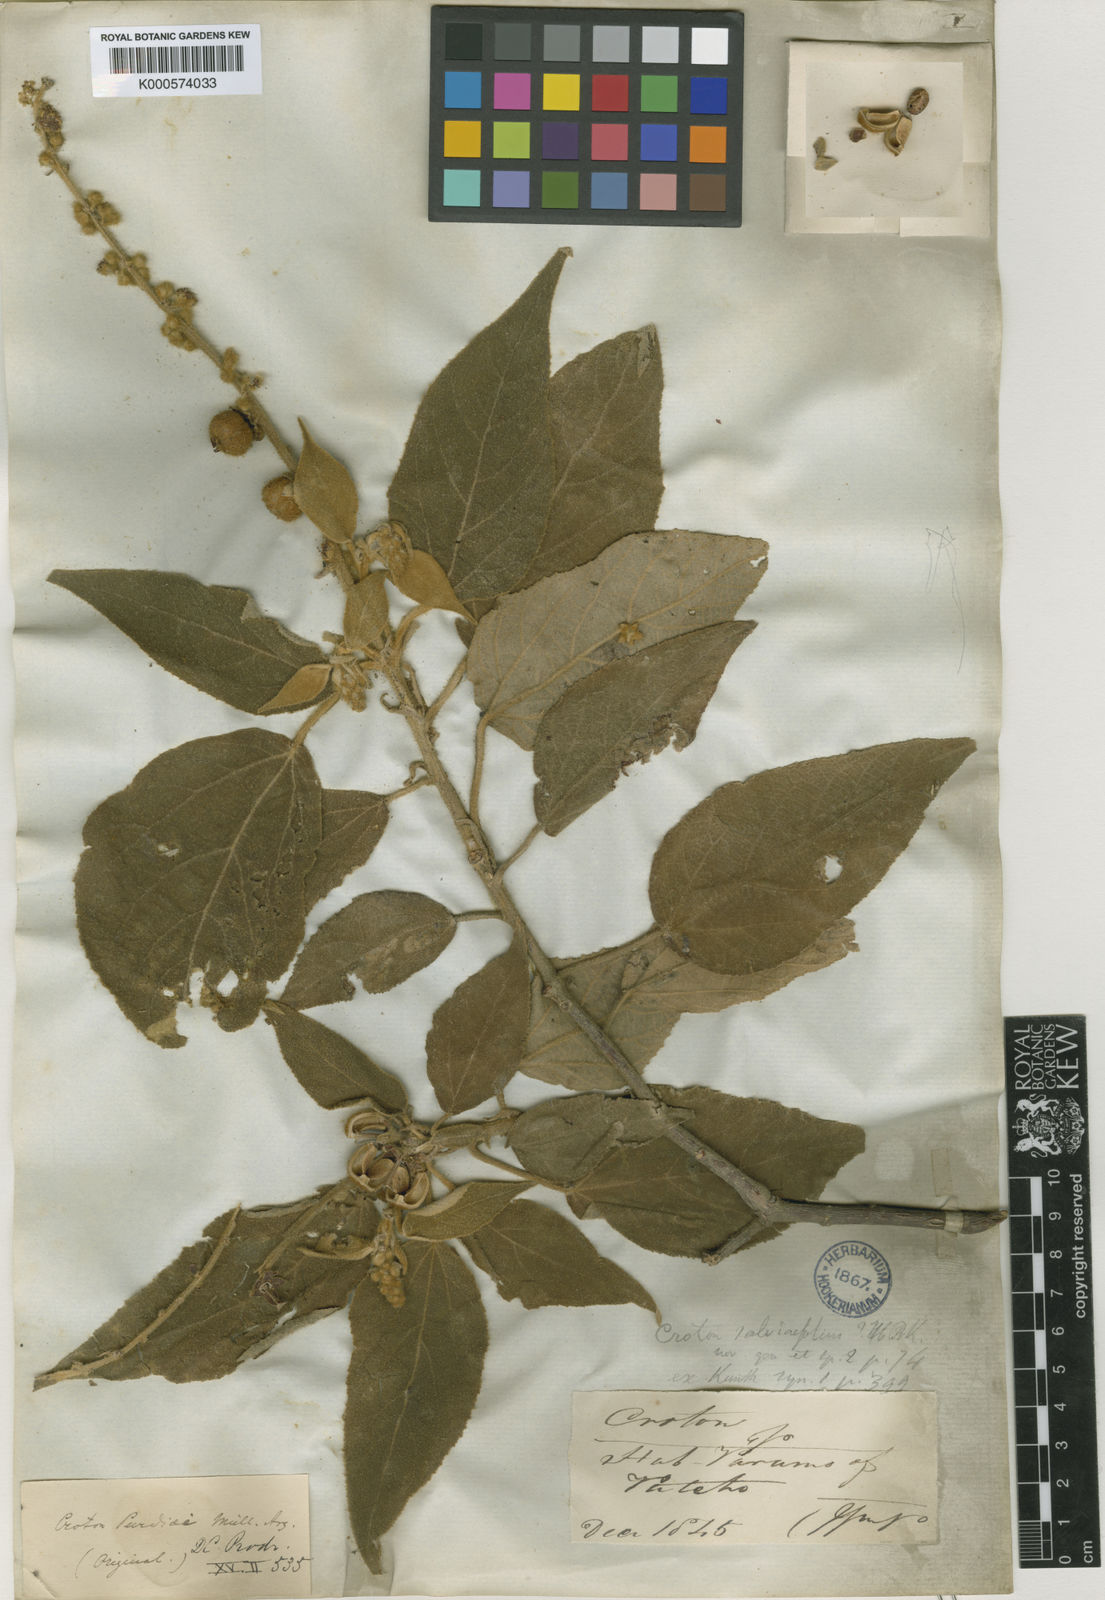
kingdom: Plantae
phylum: Tracheophyta
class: Magnoliopsida
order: Malpighiales
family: Euphorbiaceae
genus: Croton
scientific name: Croton
